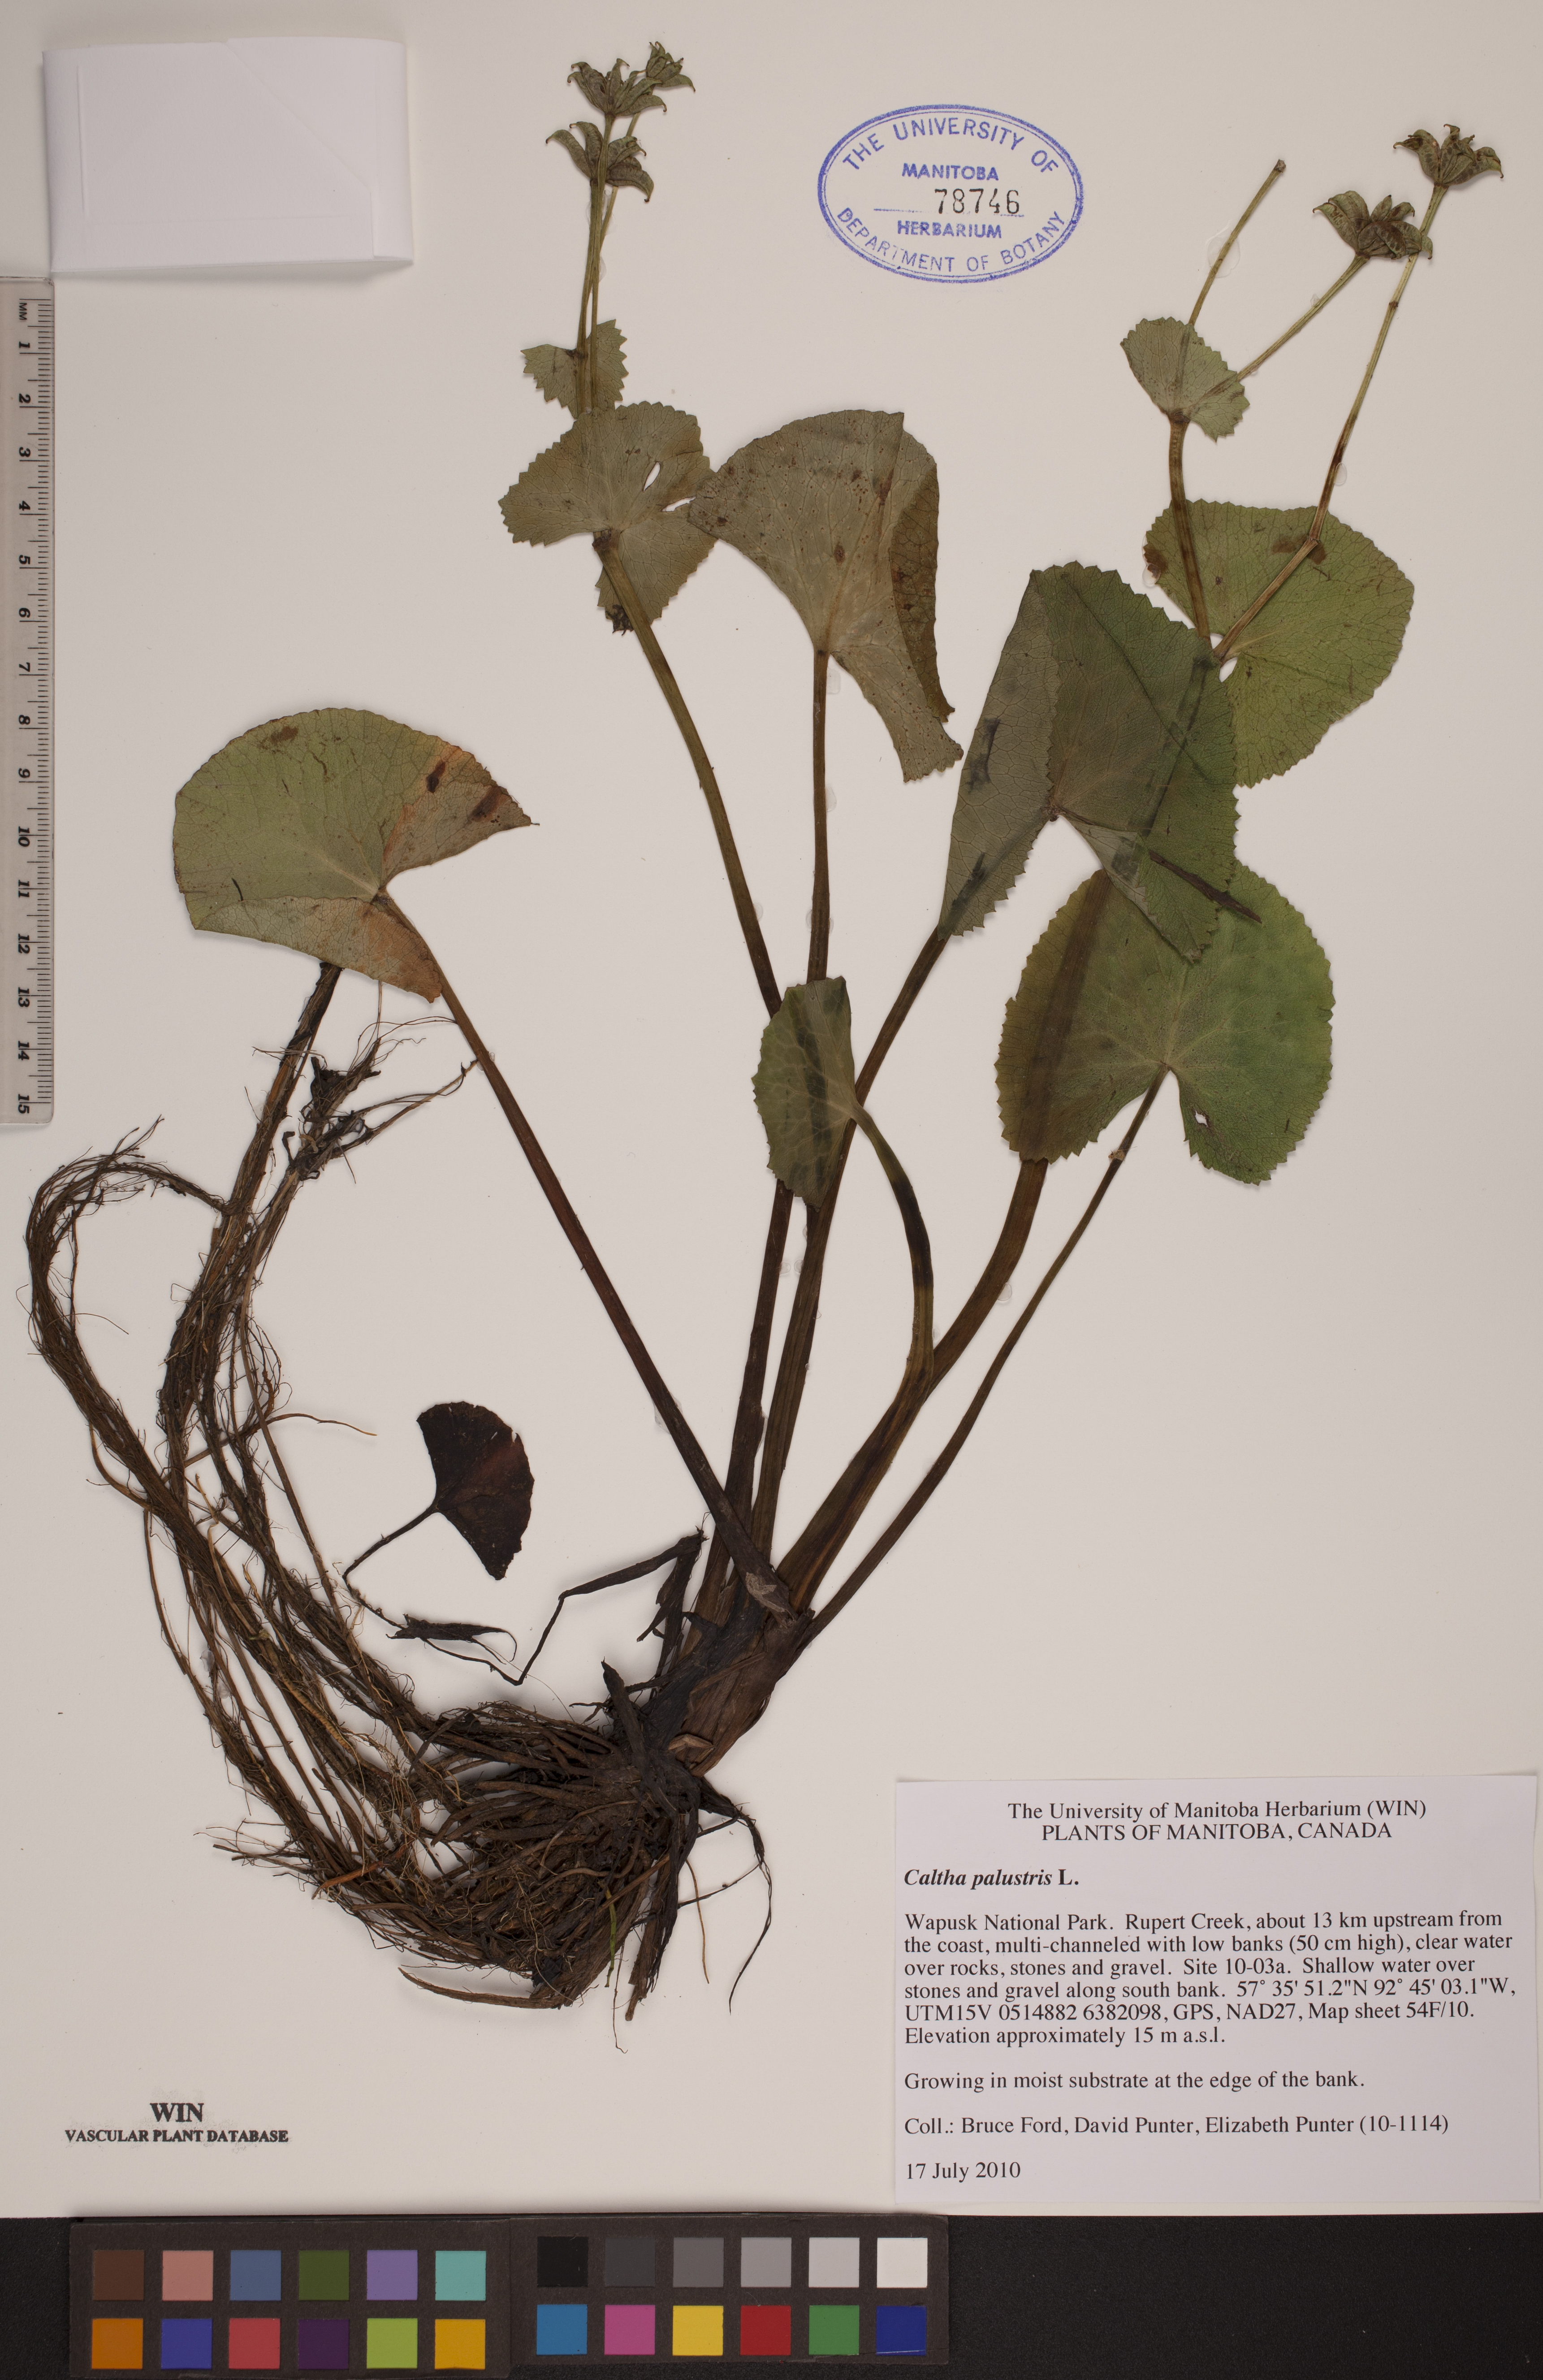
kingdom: Plantae
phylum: Tracheophyta
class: Magnoliopsida
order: Ranunculales
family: Ranunculaceae
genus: Caltha
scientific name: Caltha palustris
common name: Marsh marigold
